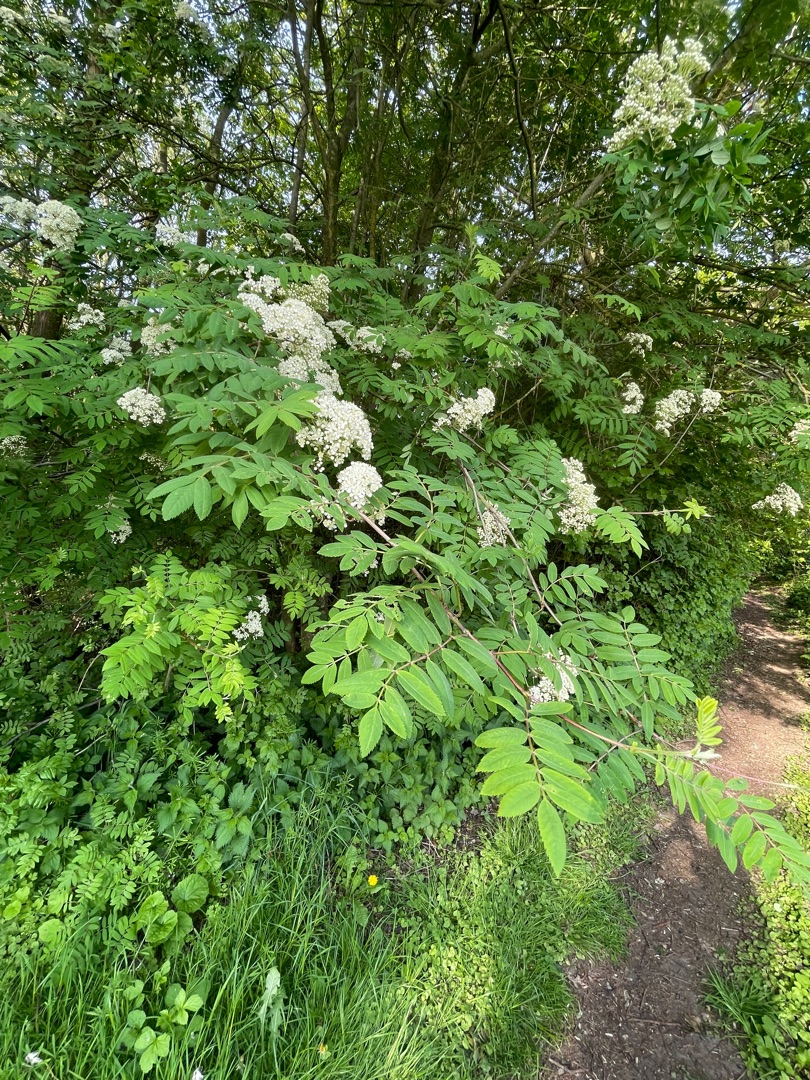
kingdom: Plantae
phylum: Tracheophyta
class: Magnoliopsida
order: Rosales
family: Rosaceae
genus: Sorbus
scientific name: Sorbus aucuparia
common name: Almindelig røn
